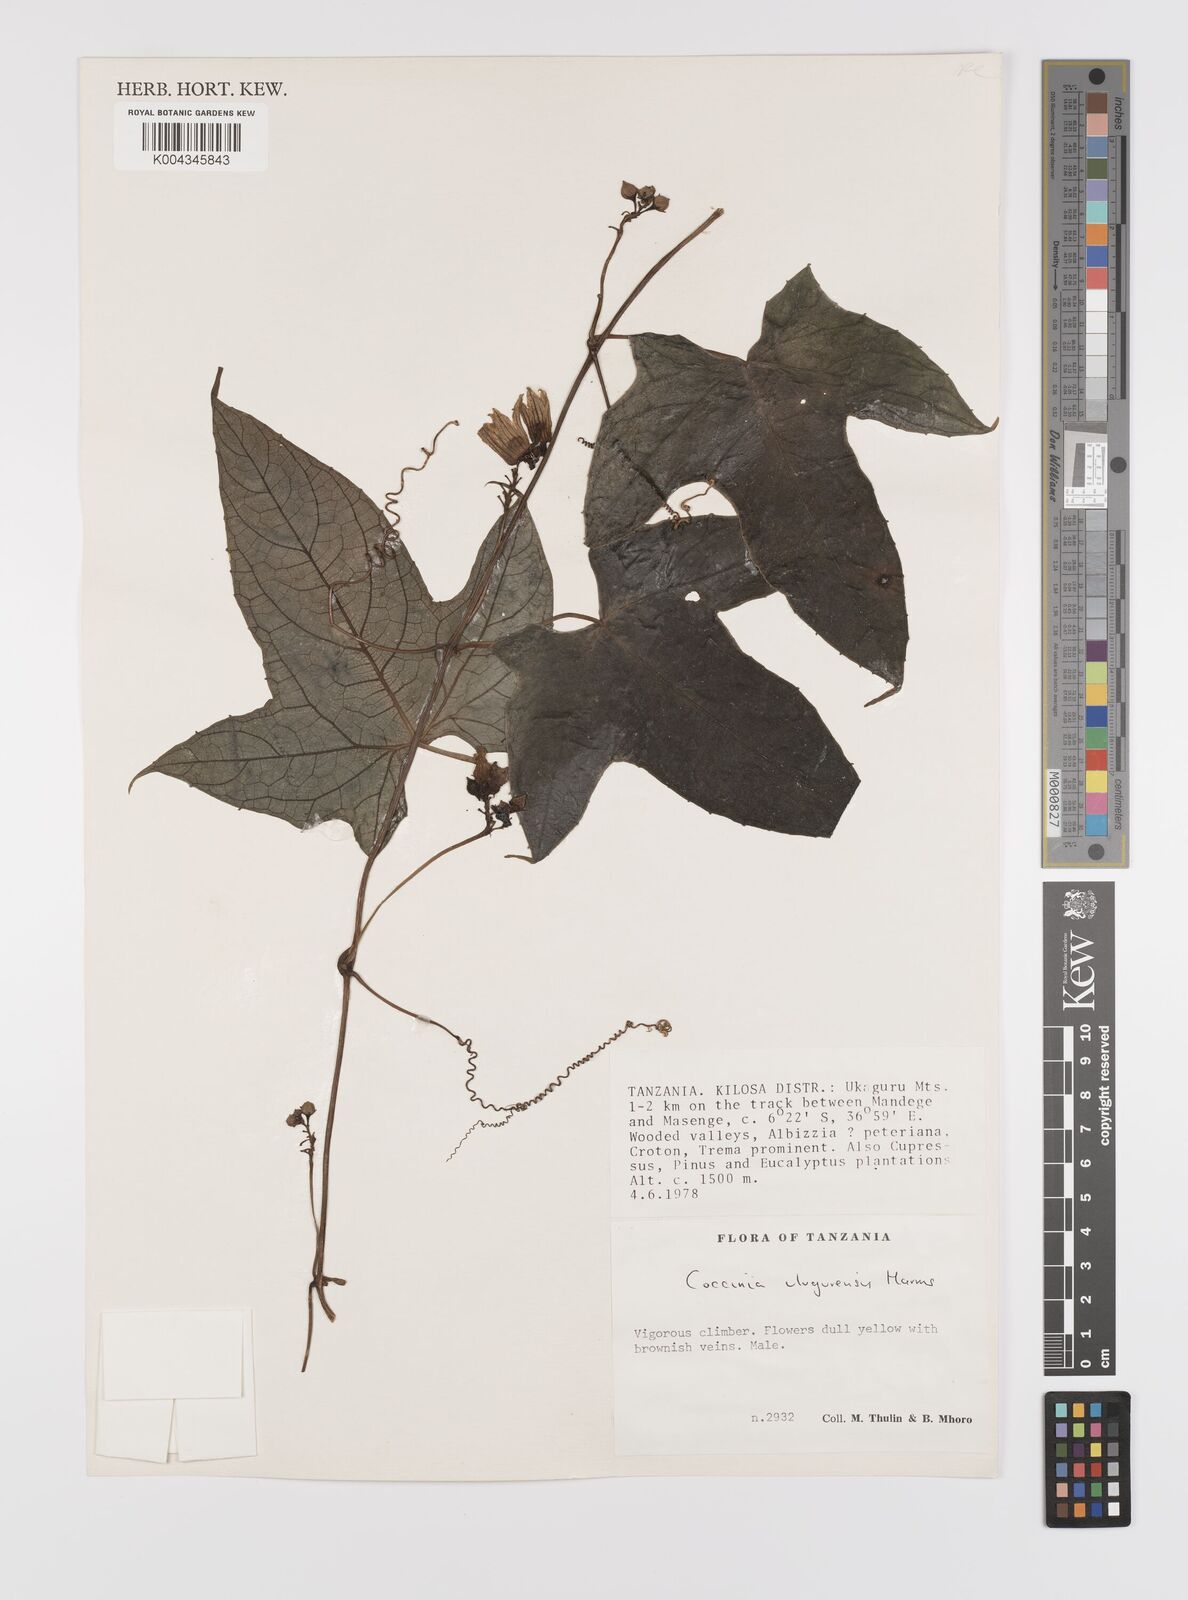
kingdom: Plantae
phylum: Tracheophyta
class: Magnoliopsida
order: Cucurbitales
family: Cucurbitaceae
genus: Coccinia
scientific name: Coccinia mildbraedii
